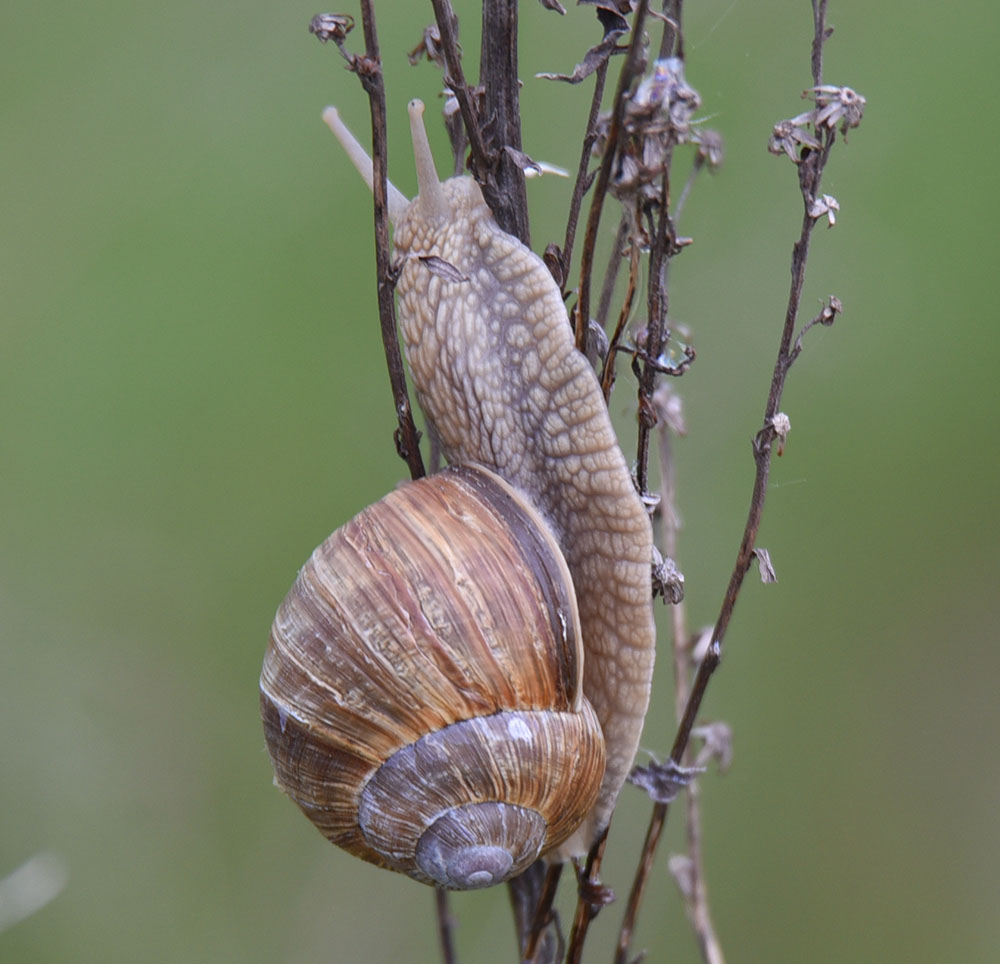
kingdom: Animalia
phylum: Mollusca
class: Gastropoda
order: Stylommatophora
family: Helicidae
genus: Helix
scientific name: Helix pomatia
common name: Roman snail
